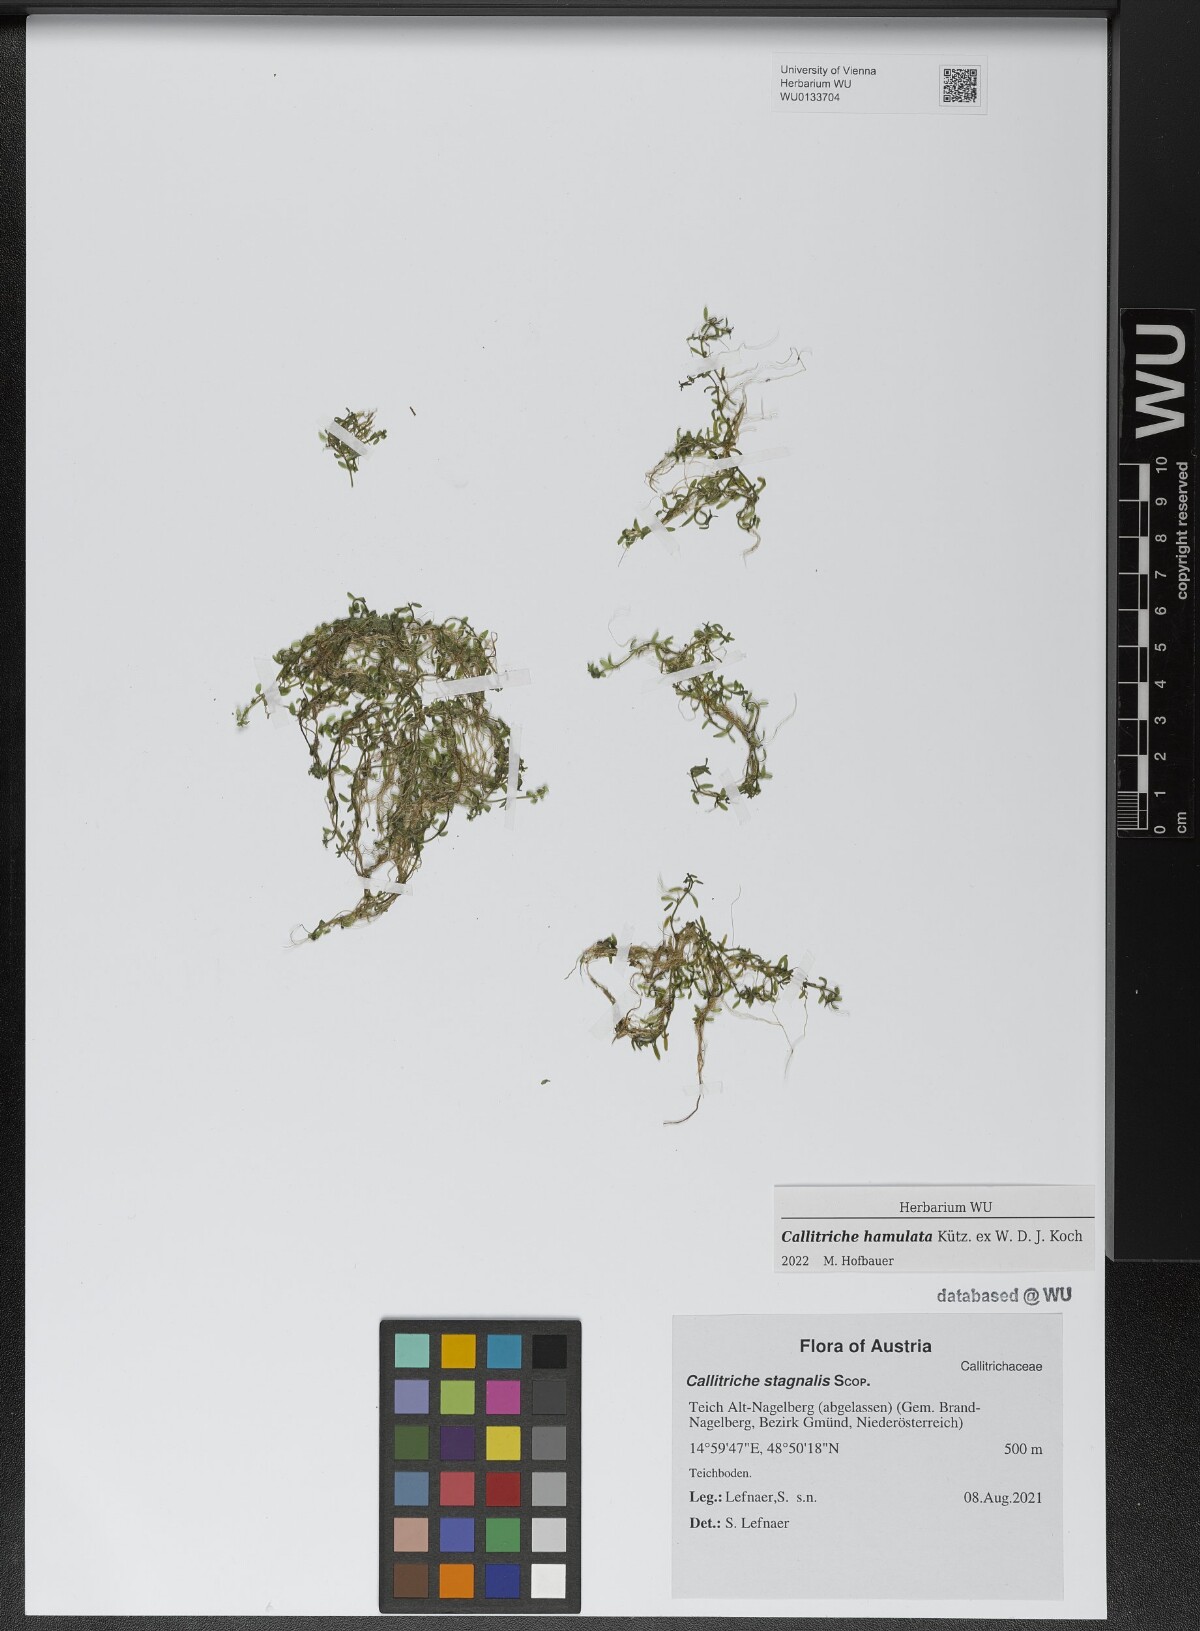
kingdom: Plantae
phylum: Tracheophyta
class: Magnoliopsida
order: Lamiales
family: Plantaginaceae
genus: Callitriche
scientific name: Callitriche hamulata
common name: Intermediate water-starwort
